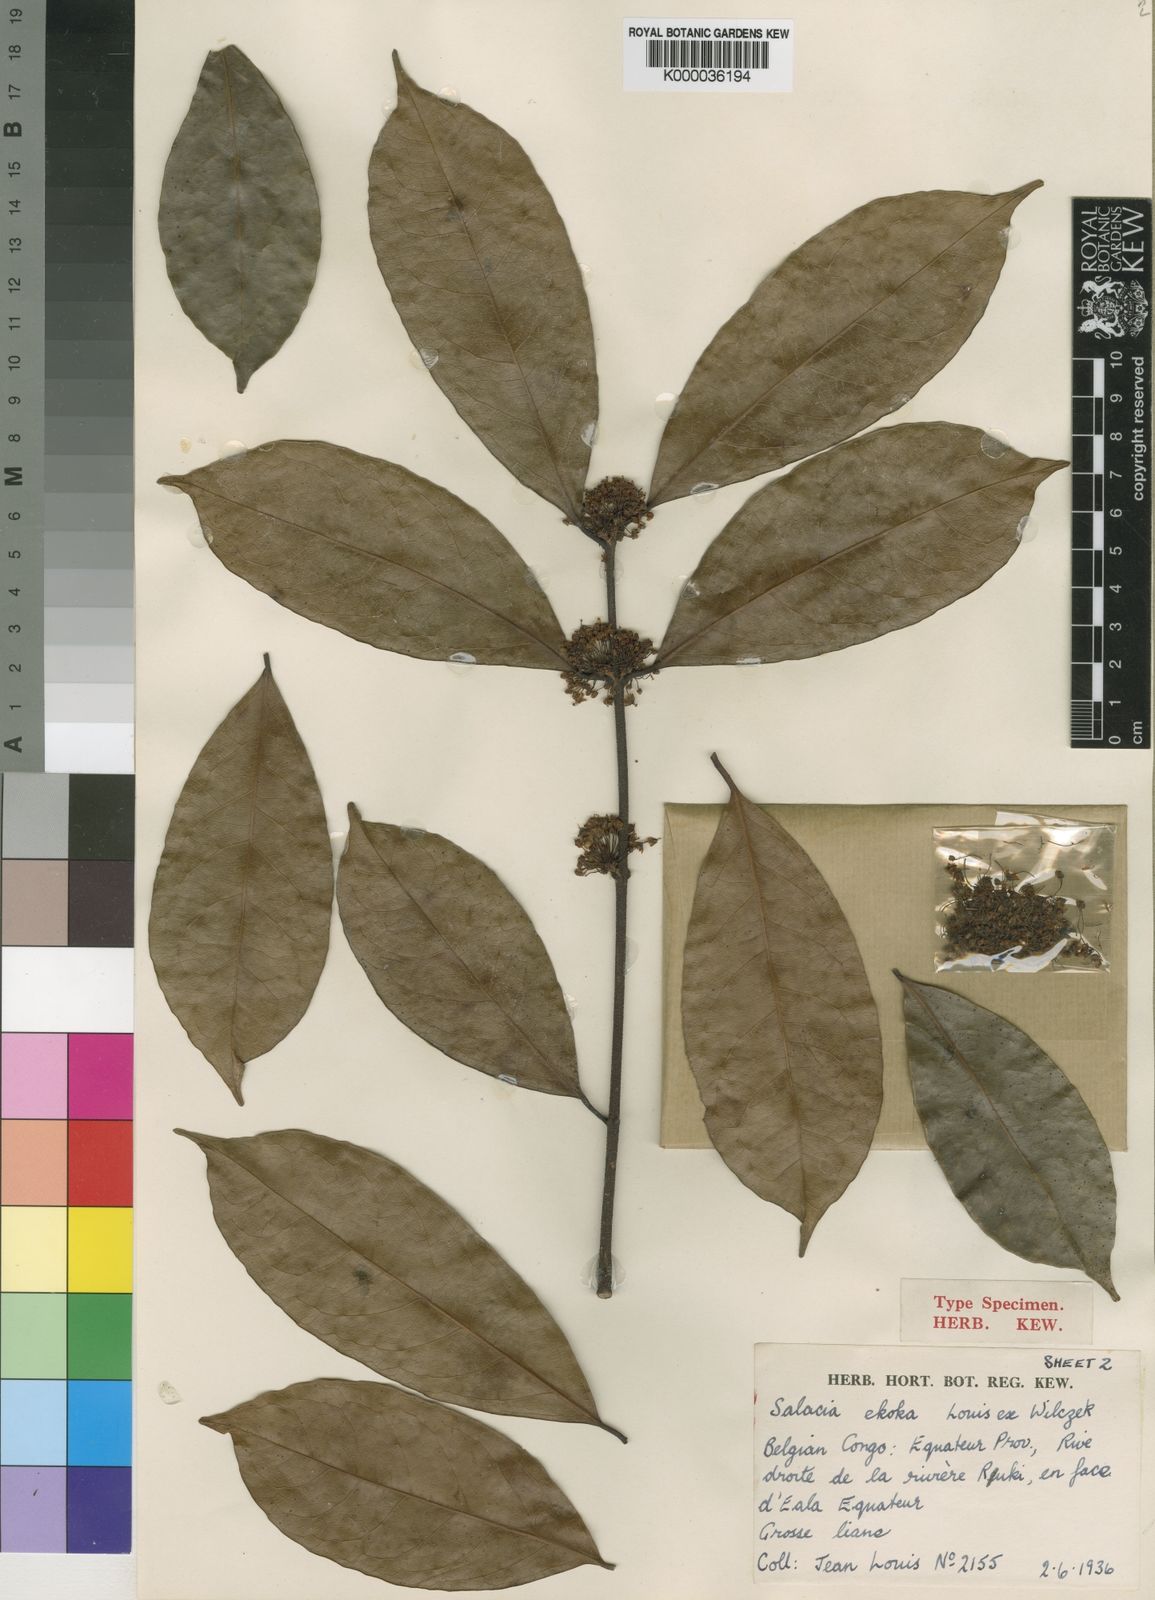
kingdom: Plantae
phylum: Tracheophyta
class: Magnoliopsida
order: Celastrales
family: Celastraceae
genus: Salacia
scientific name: Salacia
